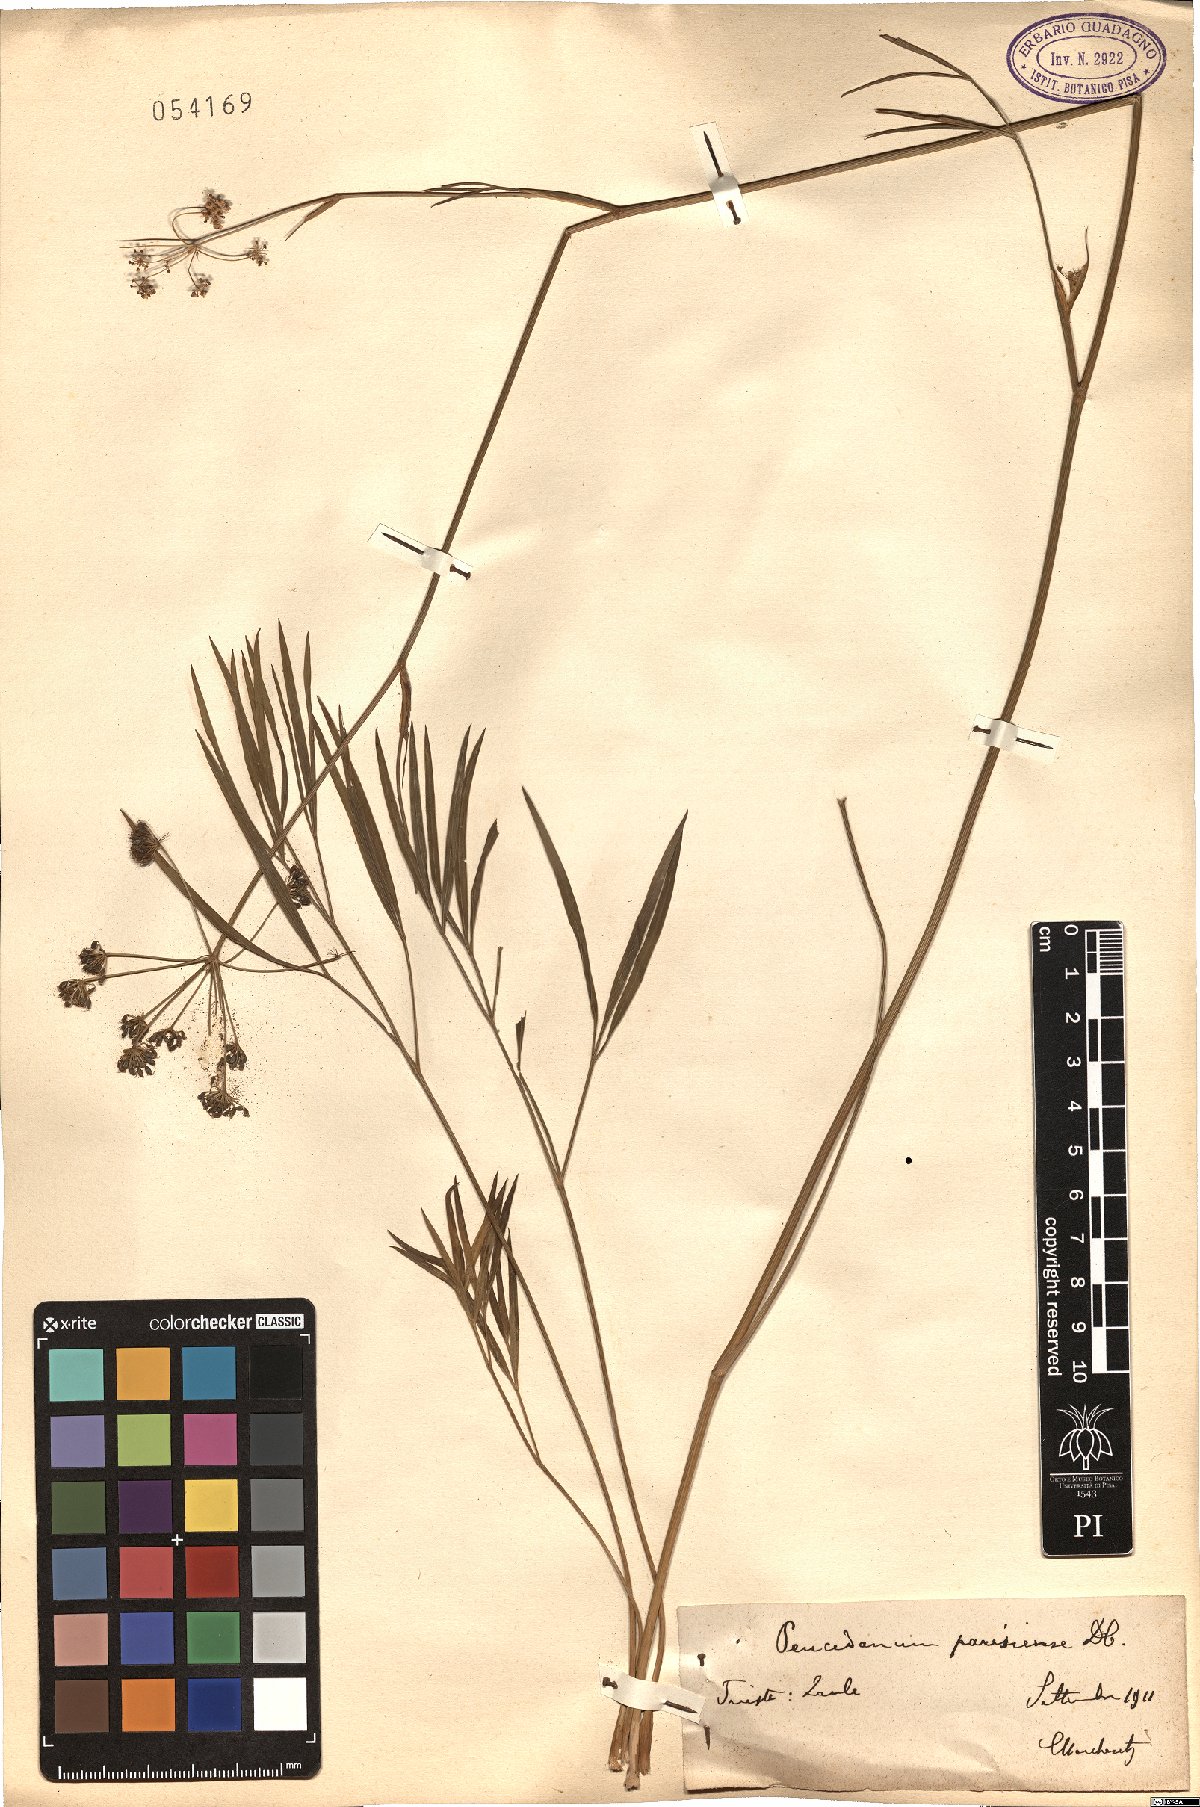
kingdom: Plantae
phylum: Tracheophyta
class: Magnoliopsida
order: Apiales
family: Apiaceae
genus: Peucedanum
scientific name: Peucedanum gallicum
